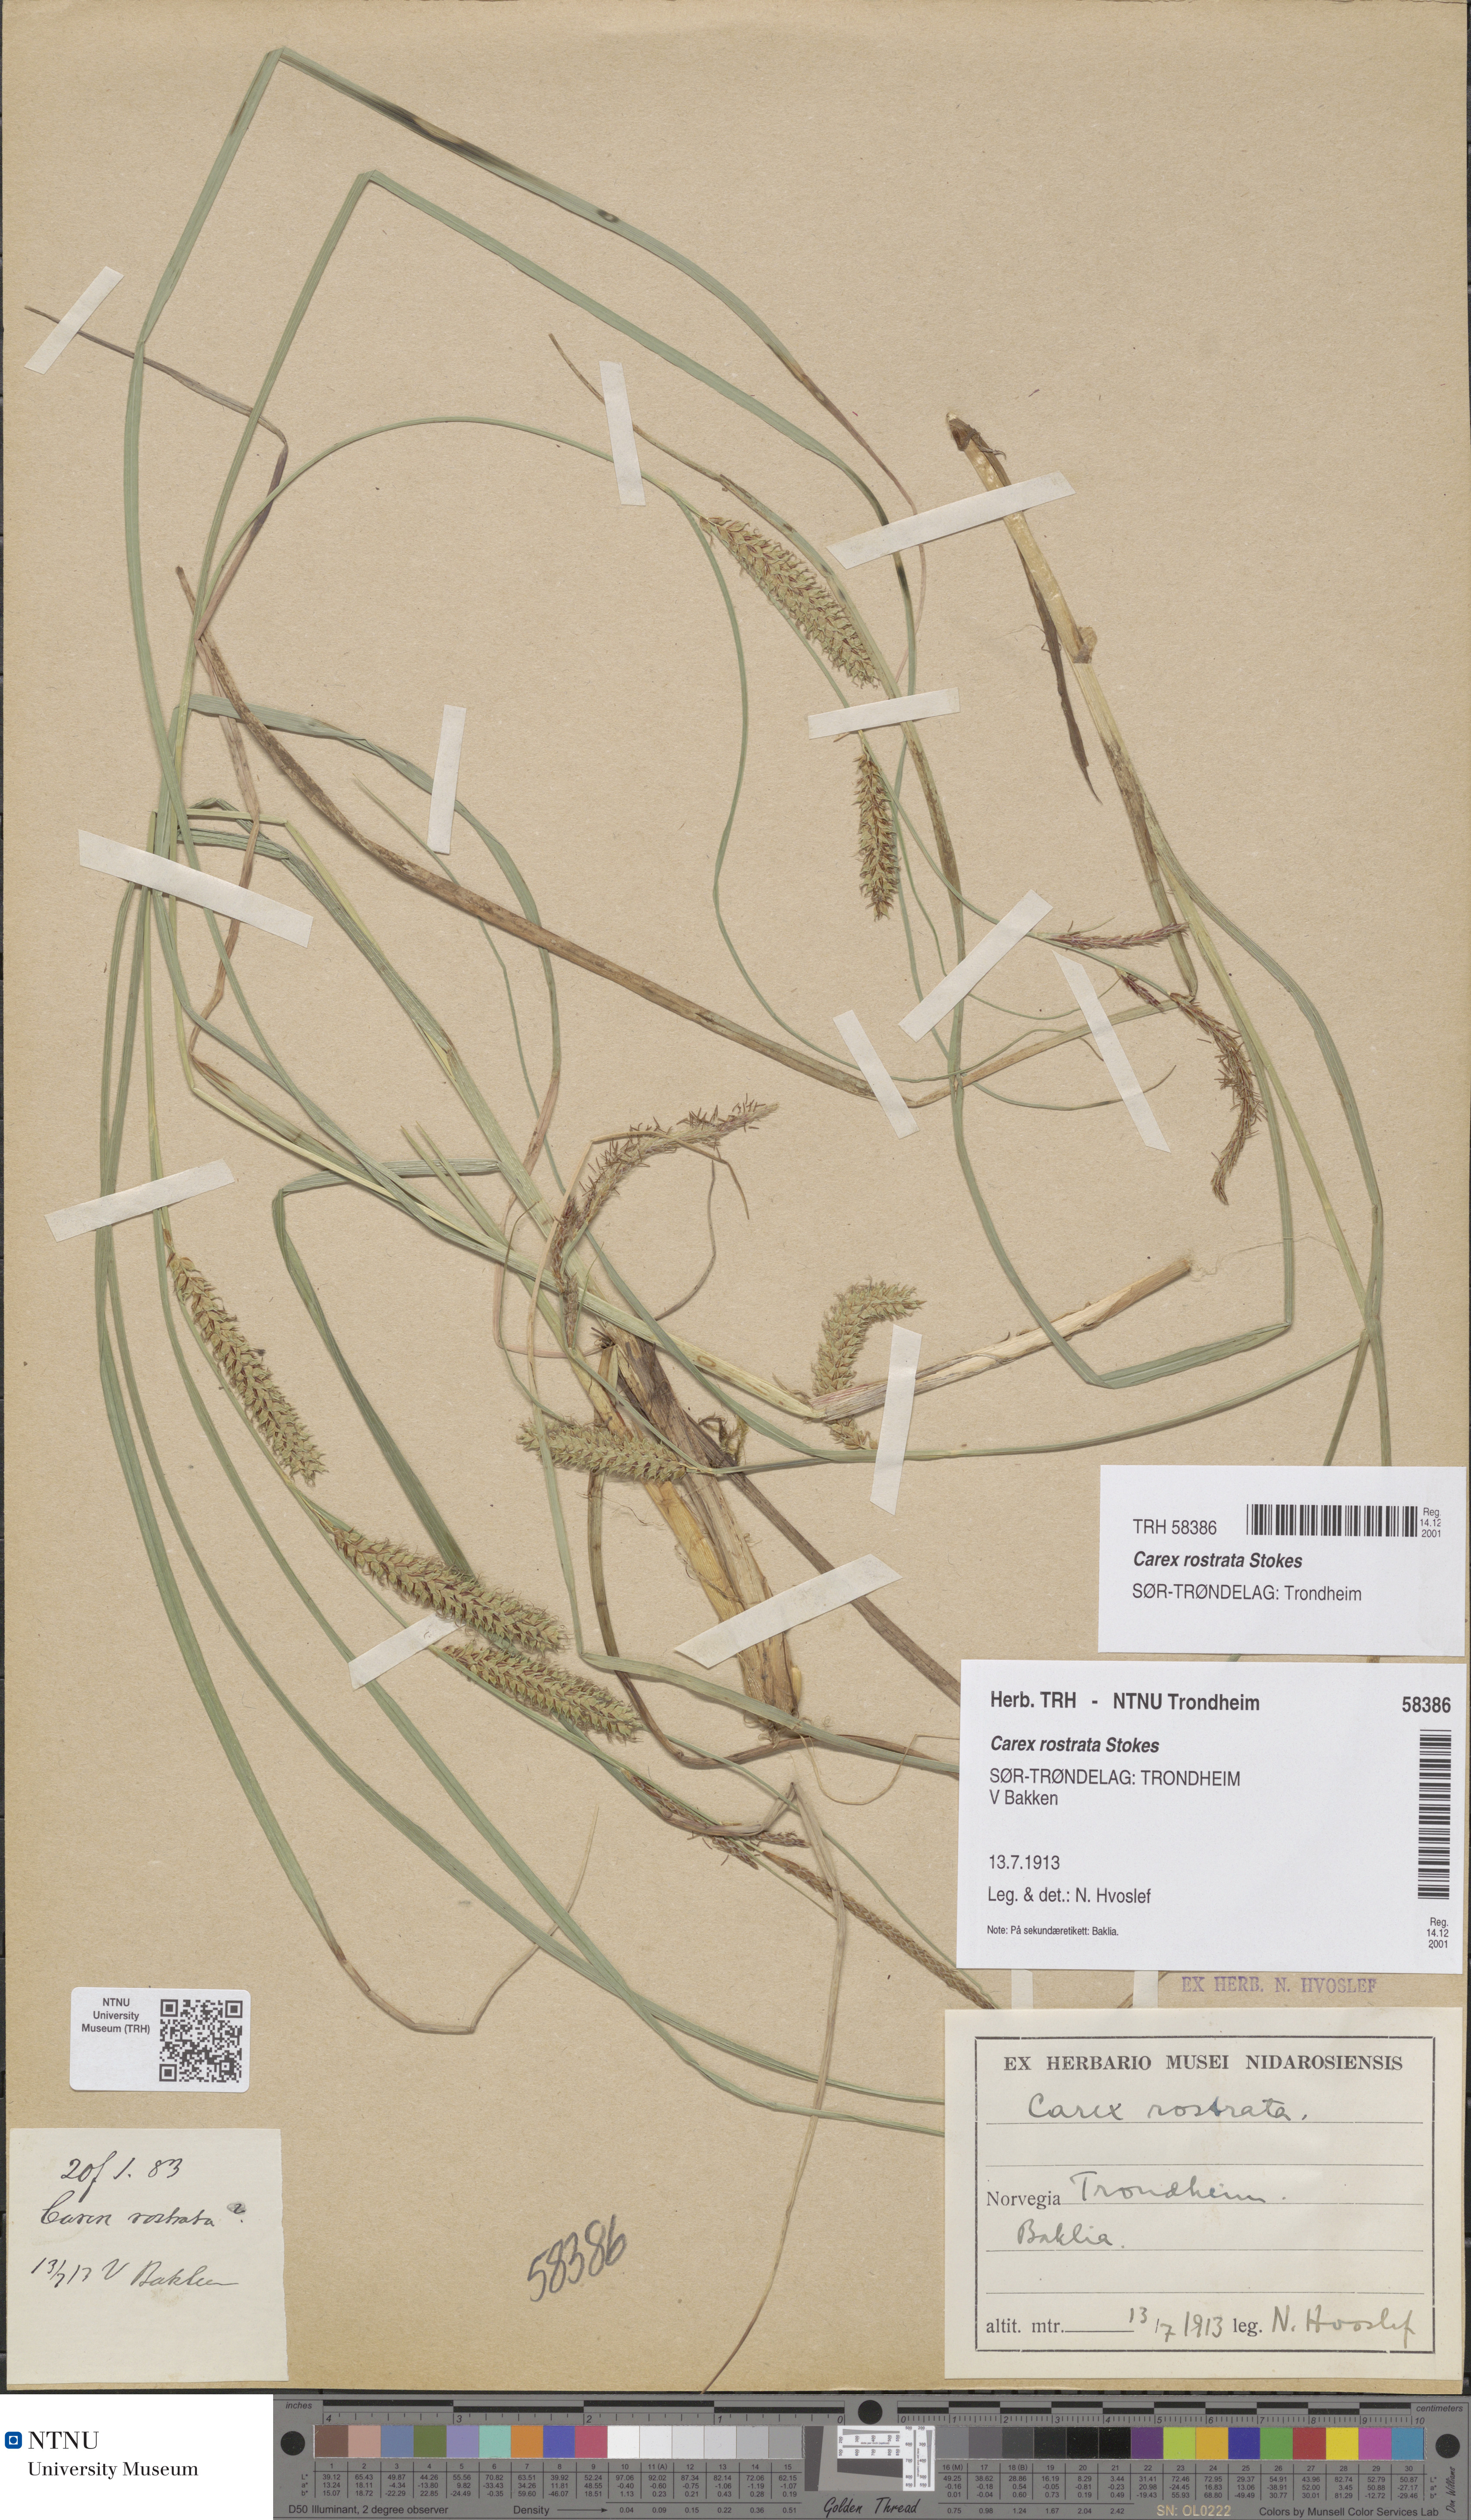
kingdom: Plantae
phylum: Tracheophyta
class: Liliopsida
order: Poales
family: Cyperaceae
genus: Carex
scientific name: Carex rostrata
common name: Bottle sedge
